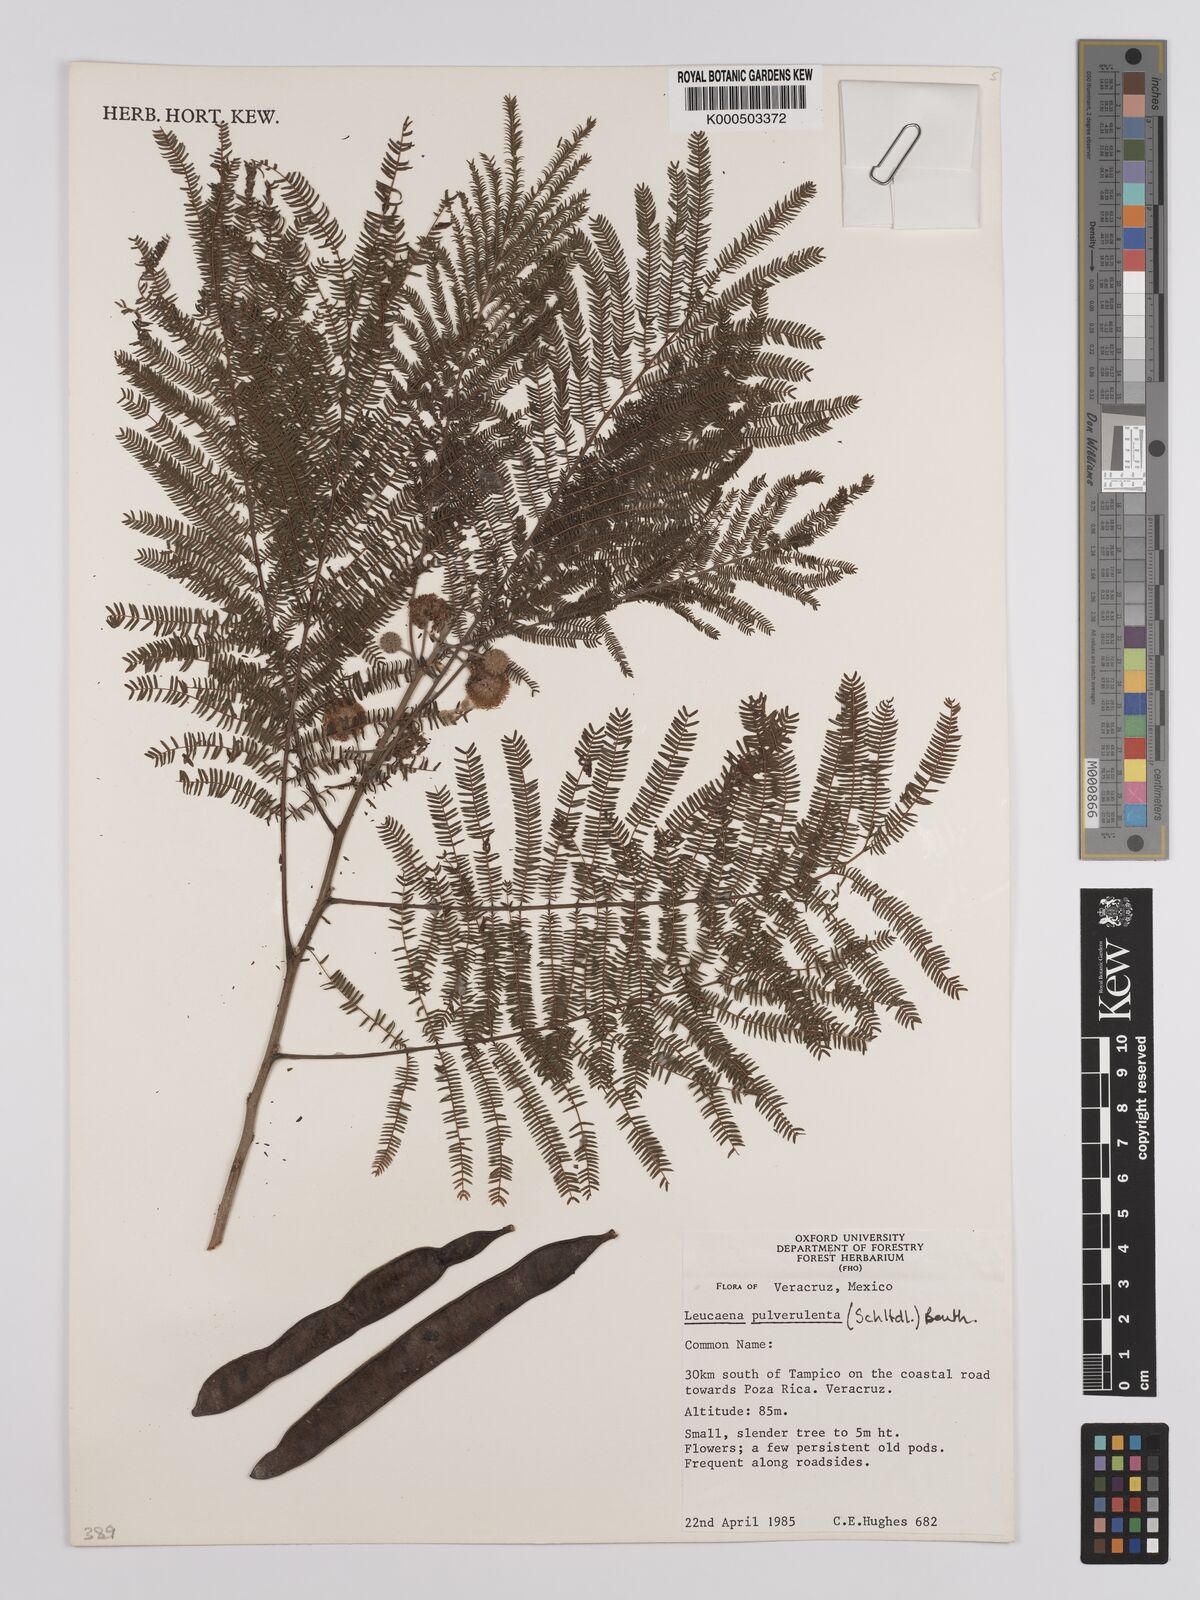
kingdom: Plantae
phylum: Tracheophyta
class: Magnoliopsida
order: Fabales
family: Fabaceae
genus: Leucaena
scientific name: Leucaena pulverulenta
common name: Great leadtree
